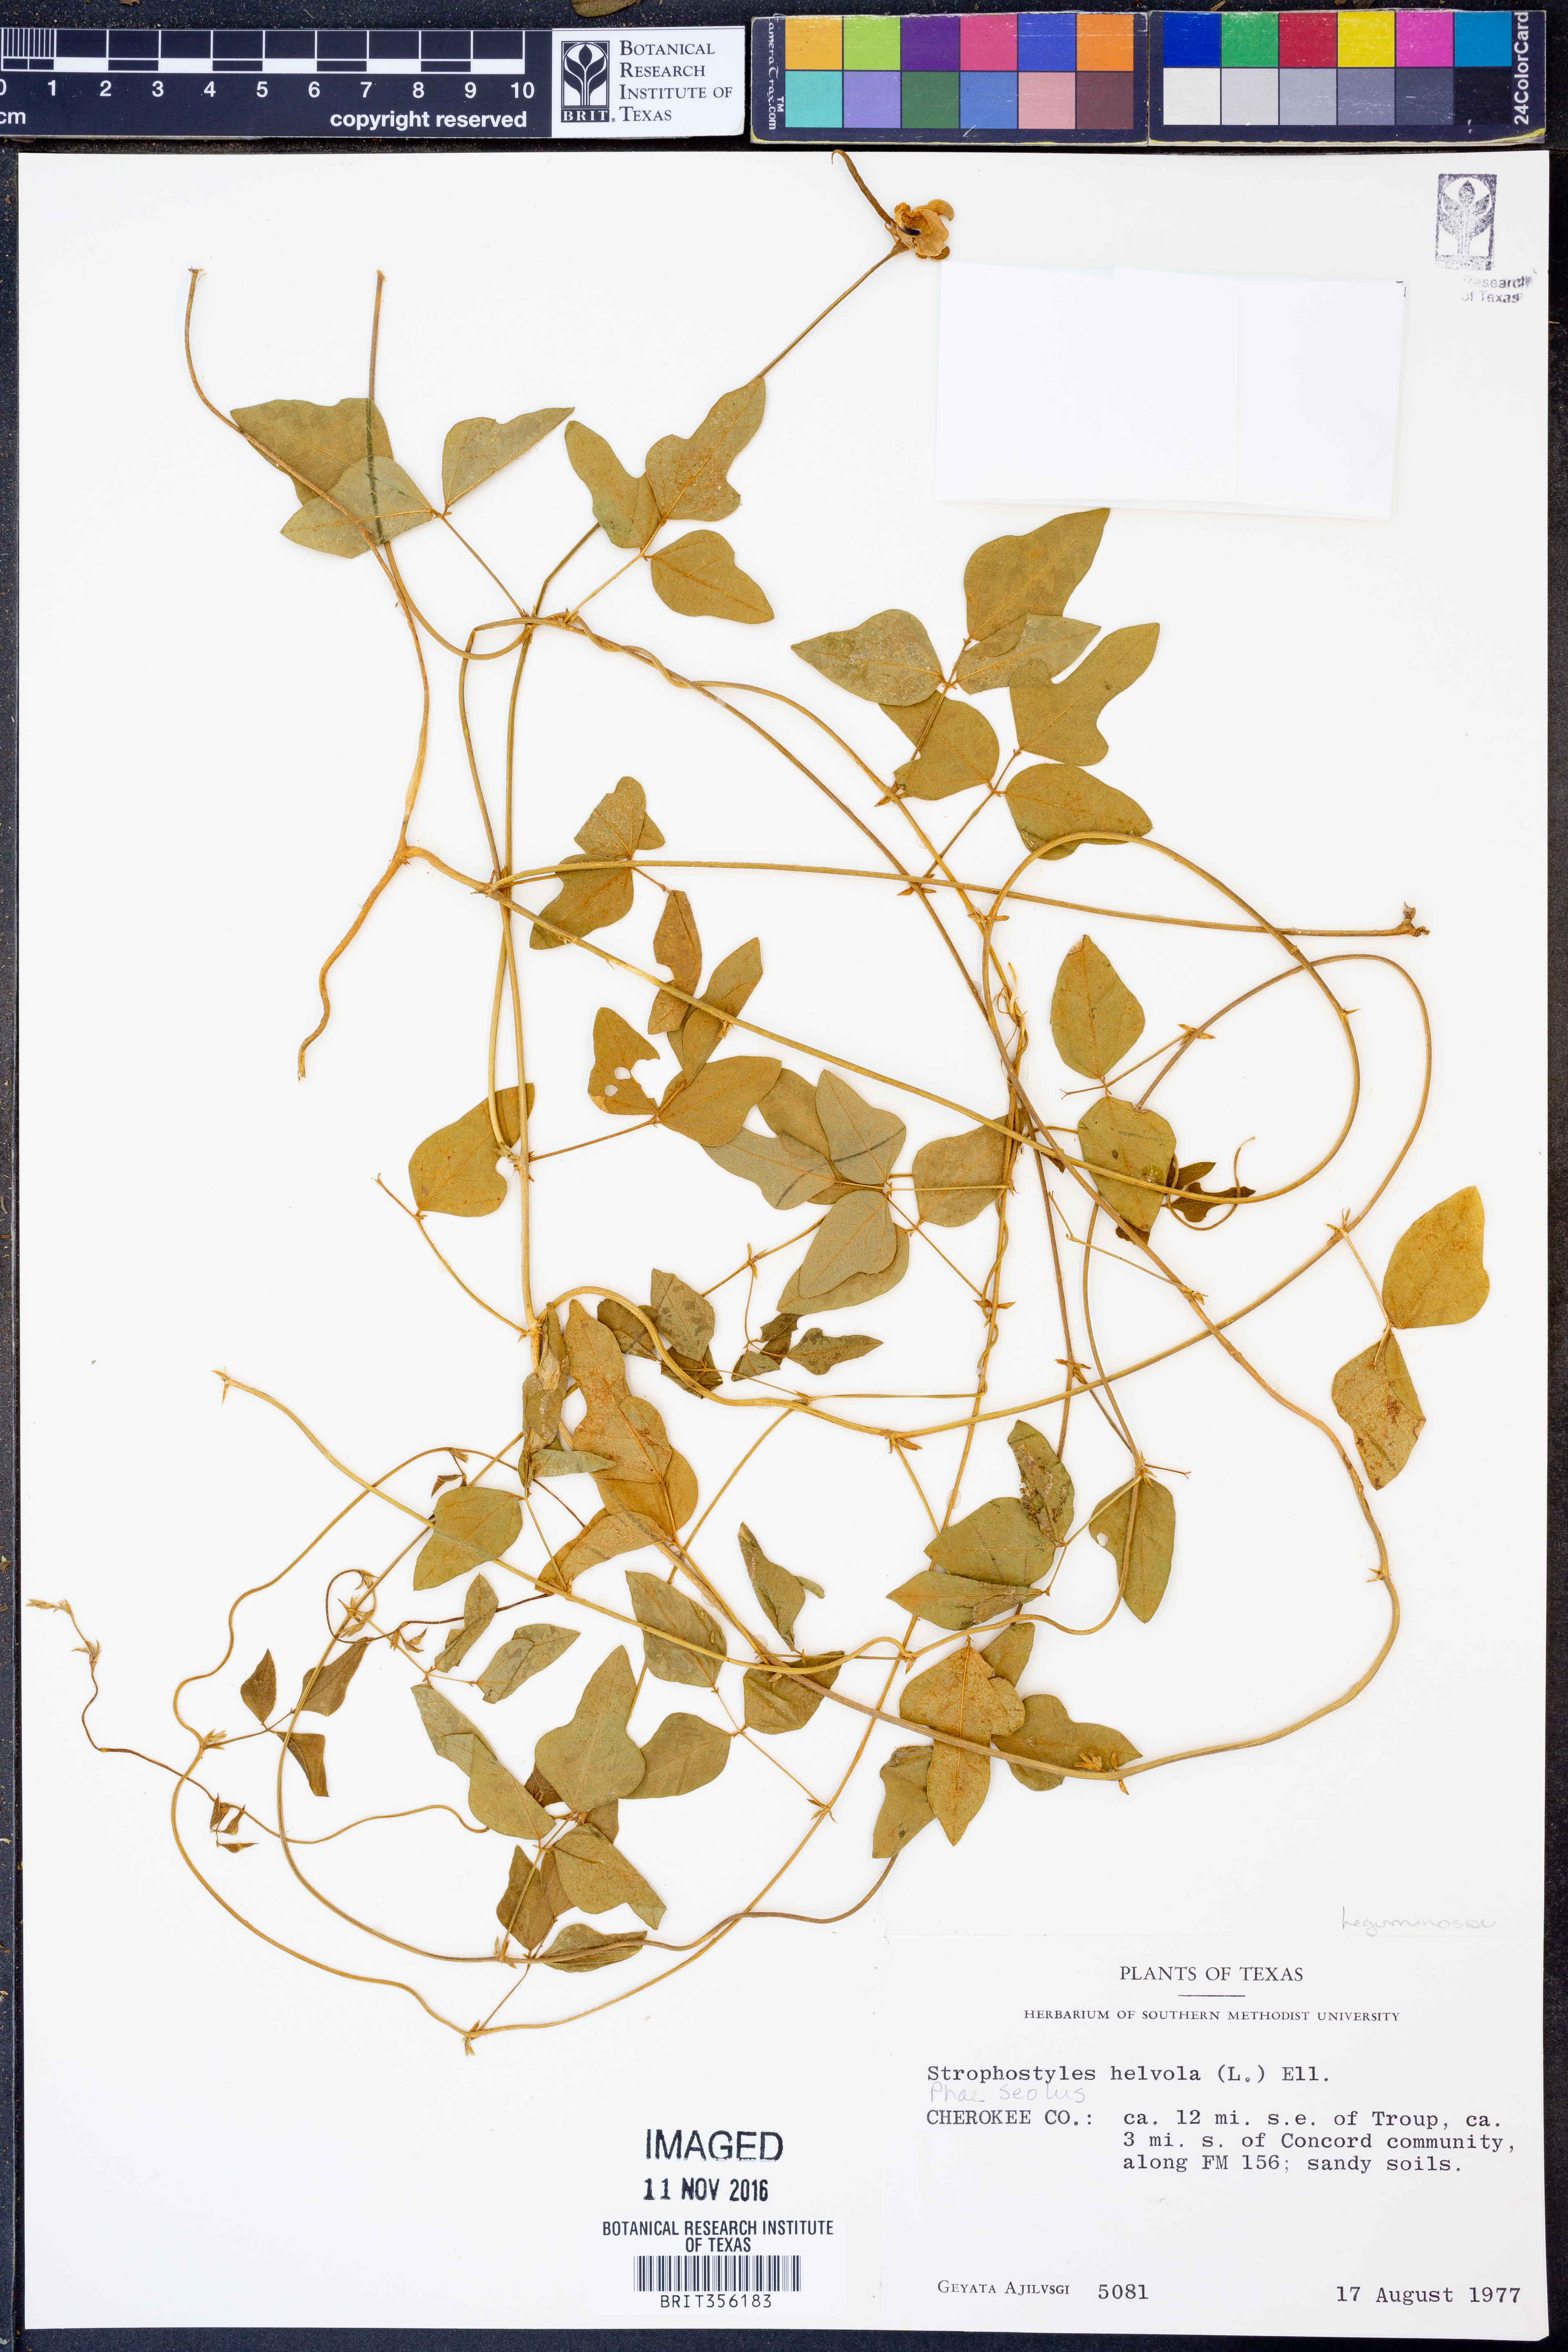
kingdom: Plantae
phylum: Tracheophyta
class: Magnoliopsida
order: Fabales
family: Fabaceae
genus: Strophostyles
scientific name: Strophostyles helvola
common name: Trailing wild bean
